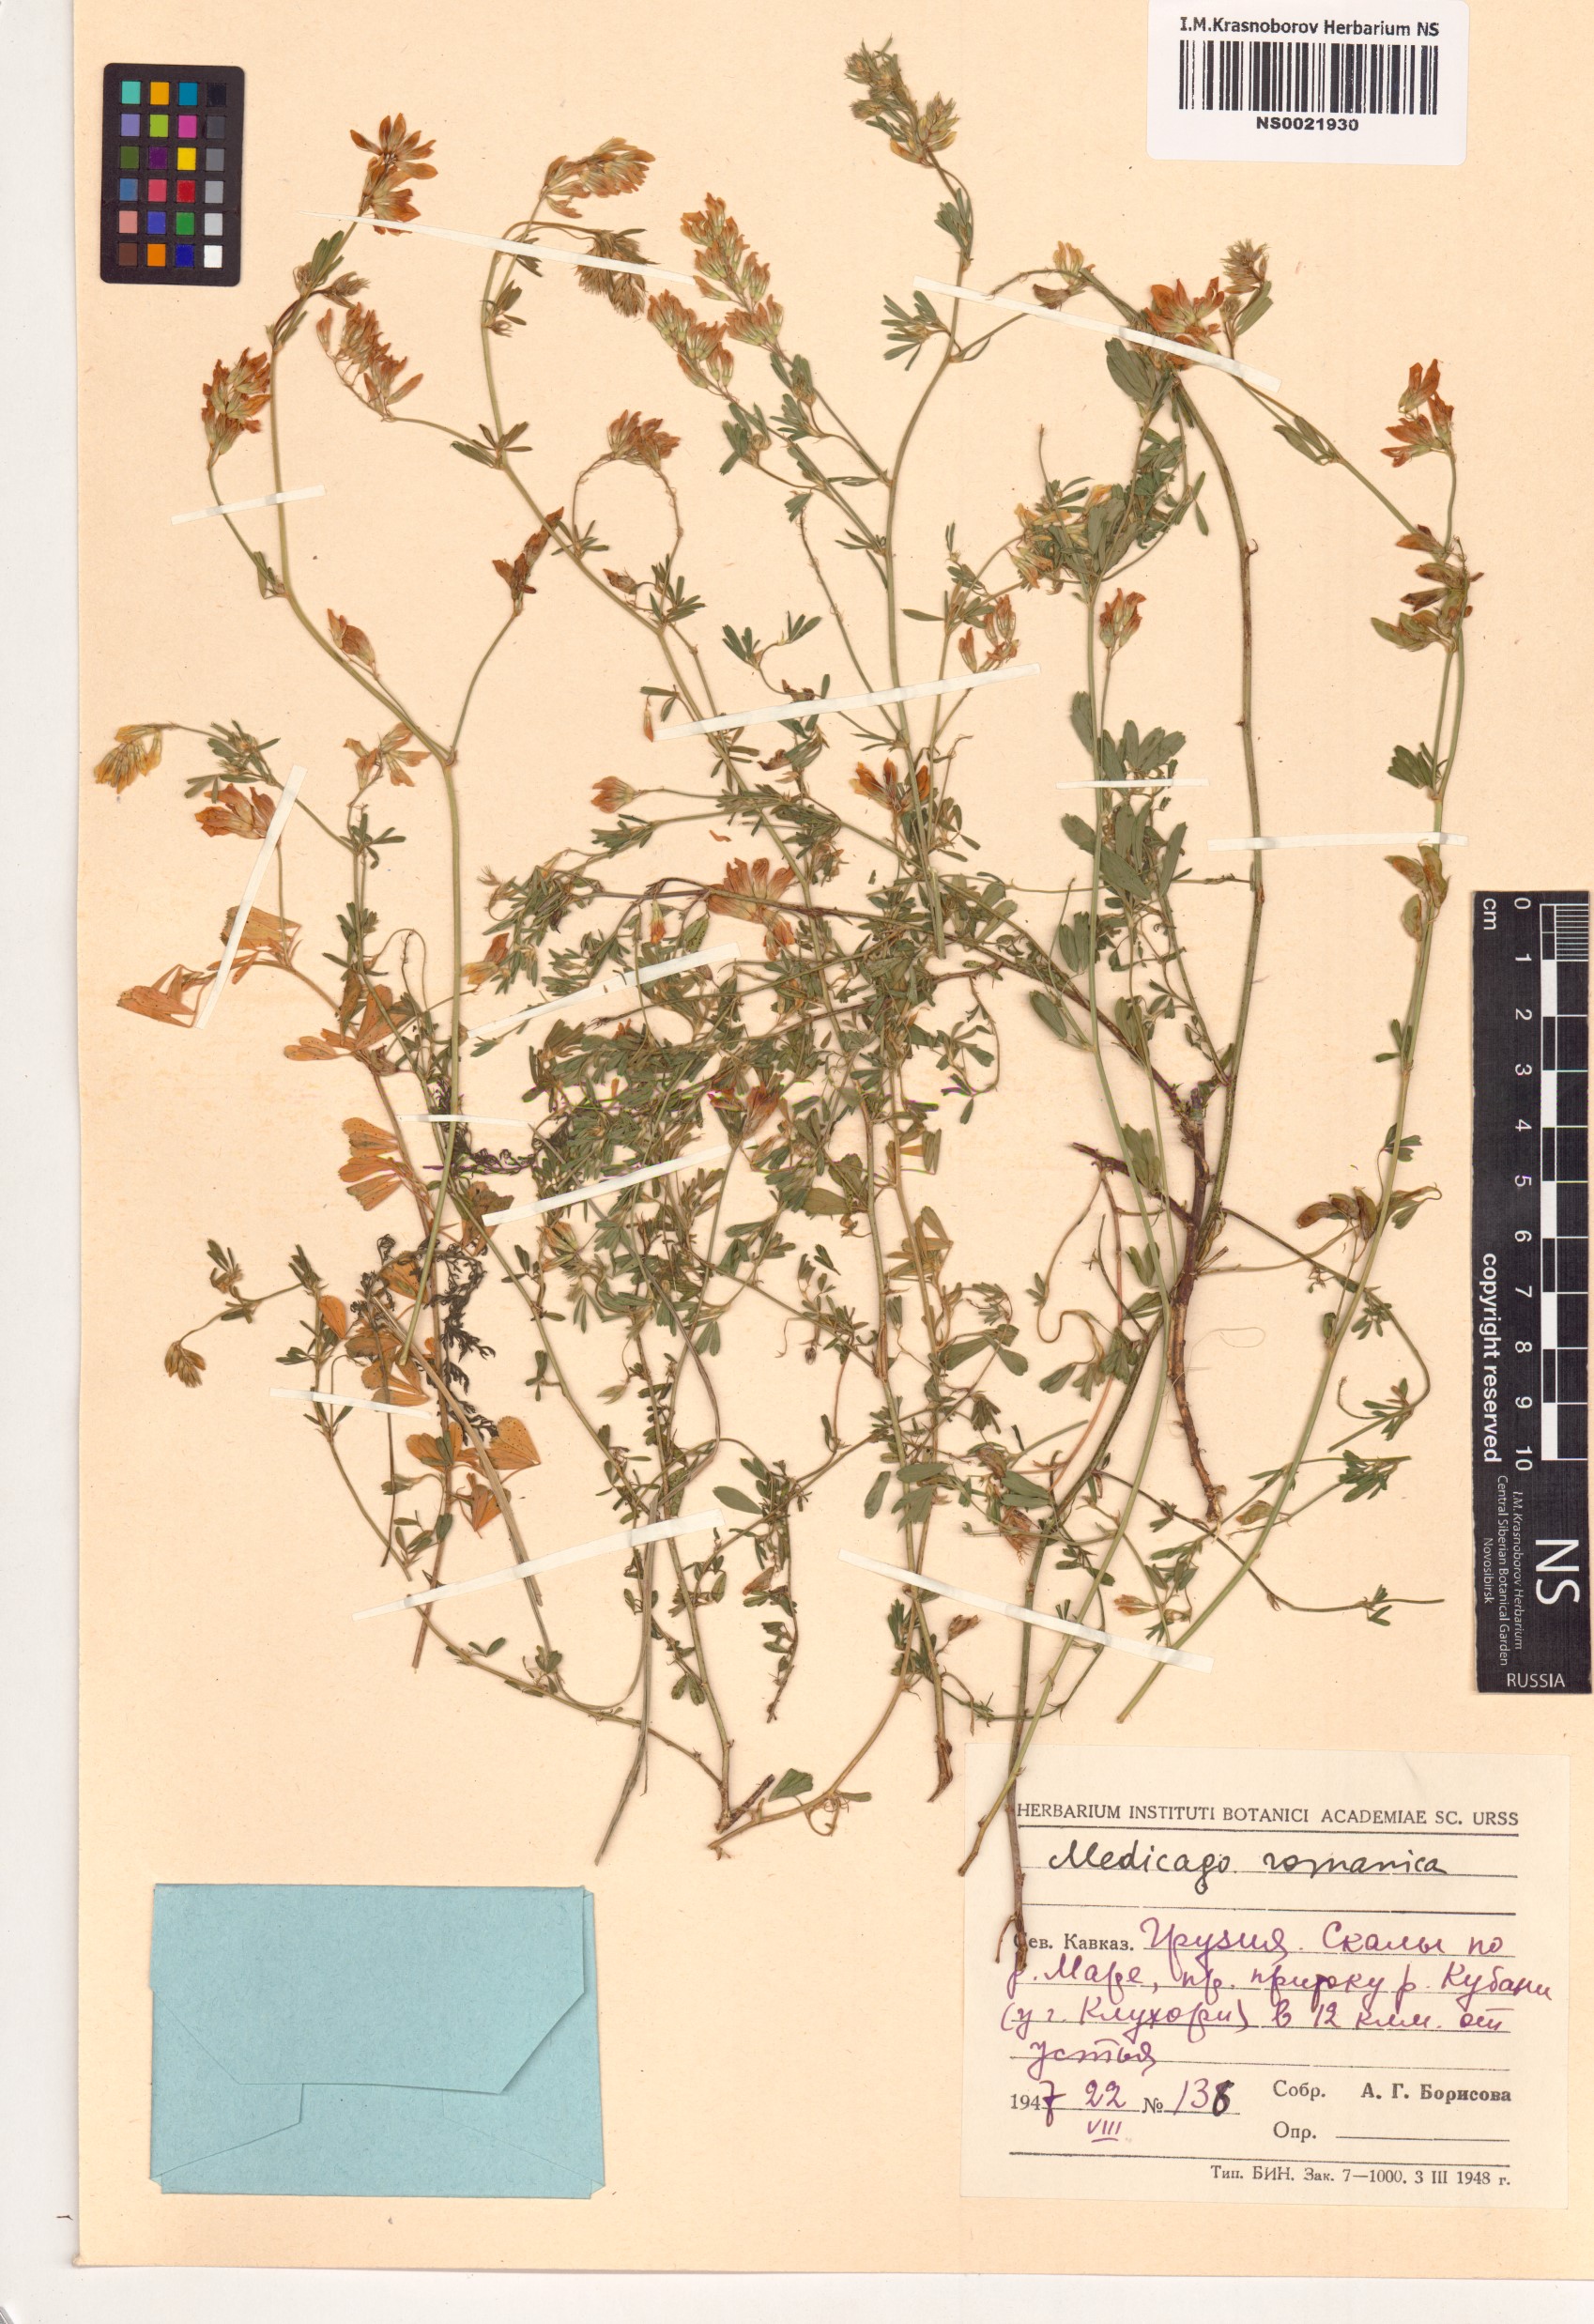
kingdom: Plantae
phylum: Tracheophyta
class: Magnoliopsida
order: Fabales
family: Fabaceae
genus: Medicago
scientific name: Medicago falcata
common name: Sickle medick
